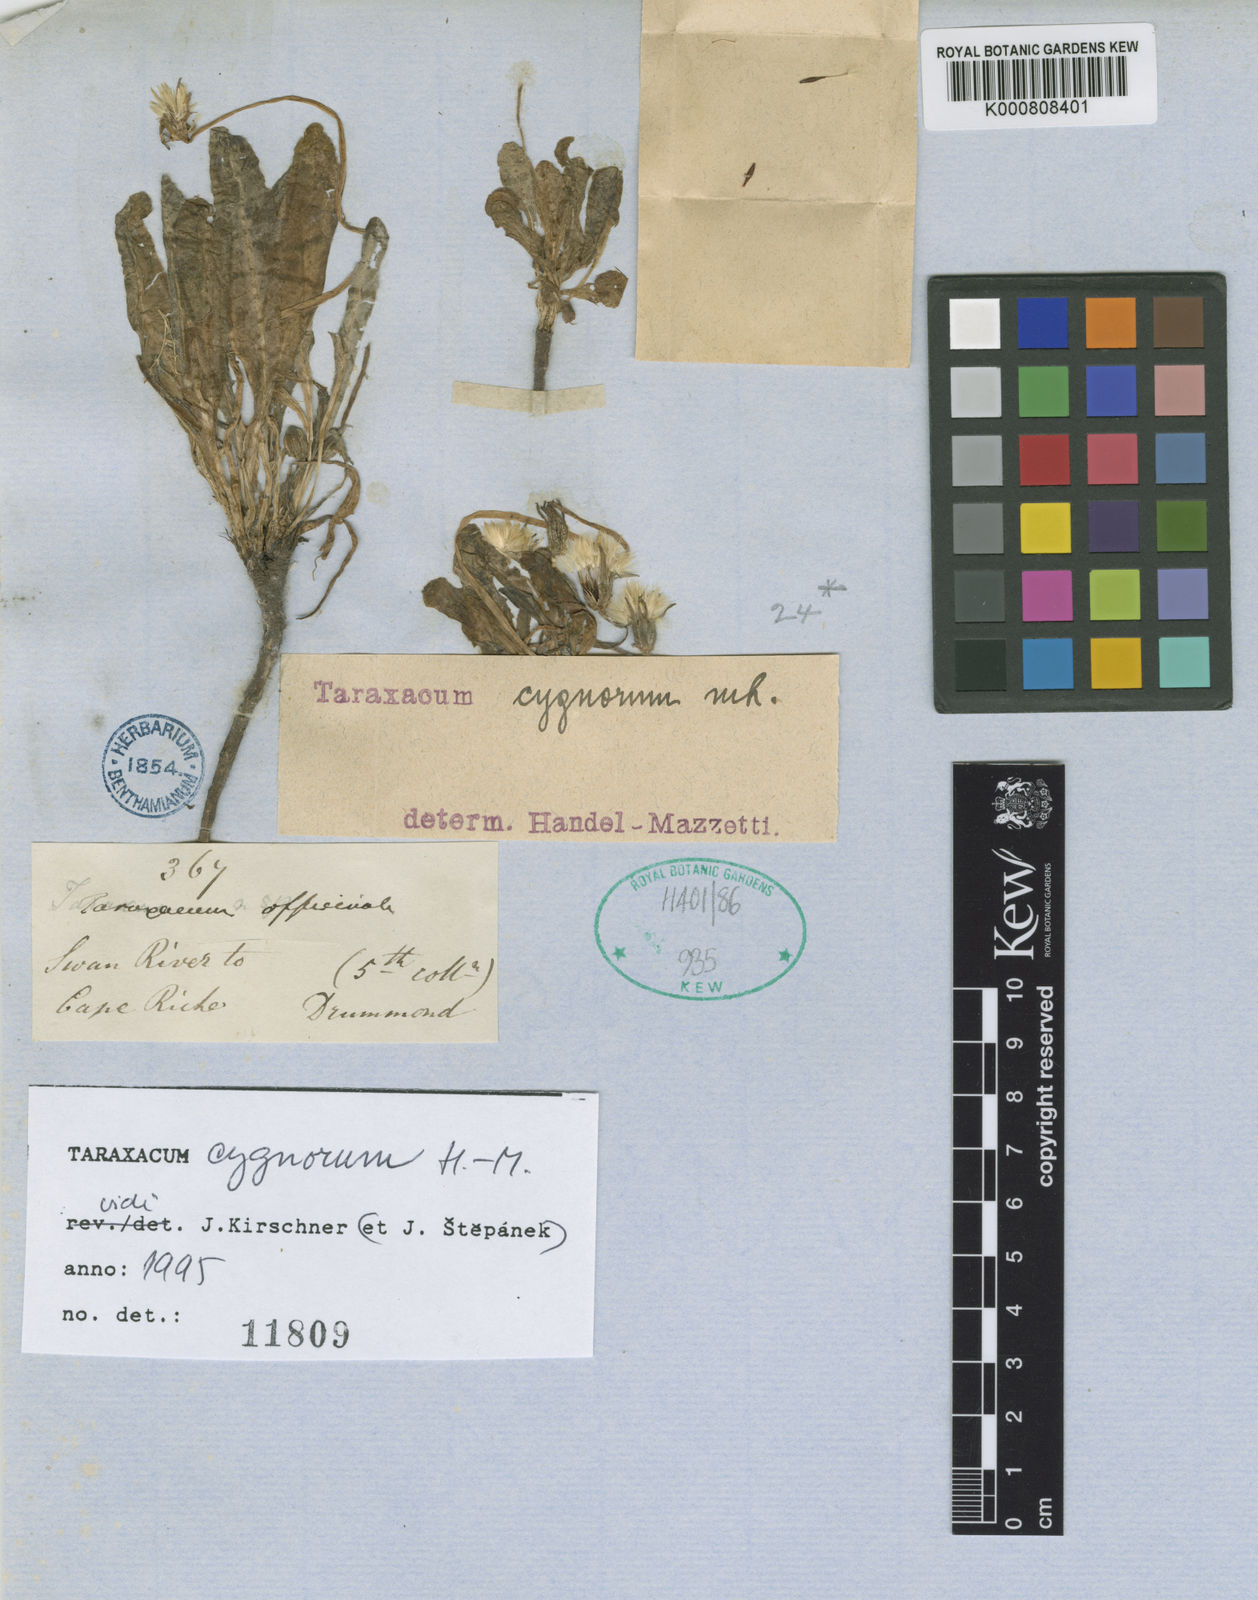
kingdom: Plantae
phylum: Tracheophyta
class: Magnoliopsida
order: Asterales
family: Asteraceae
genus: Taraxacum
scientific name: Taraxacum cygnorum
